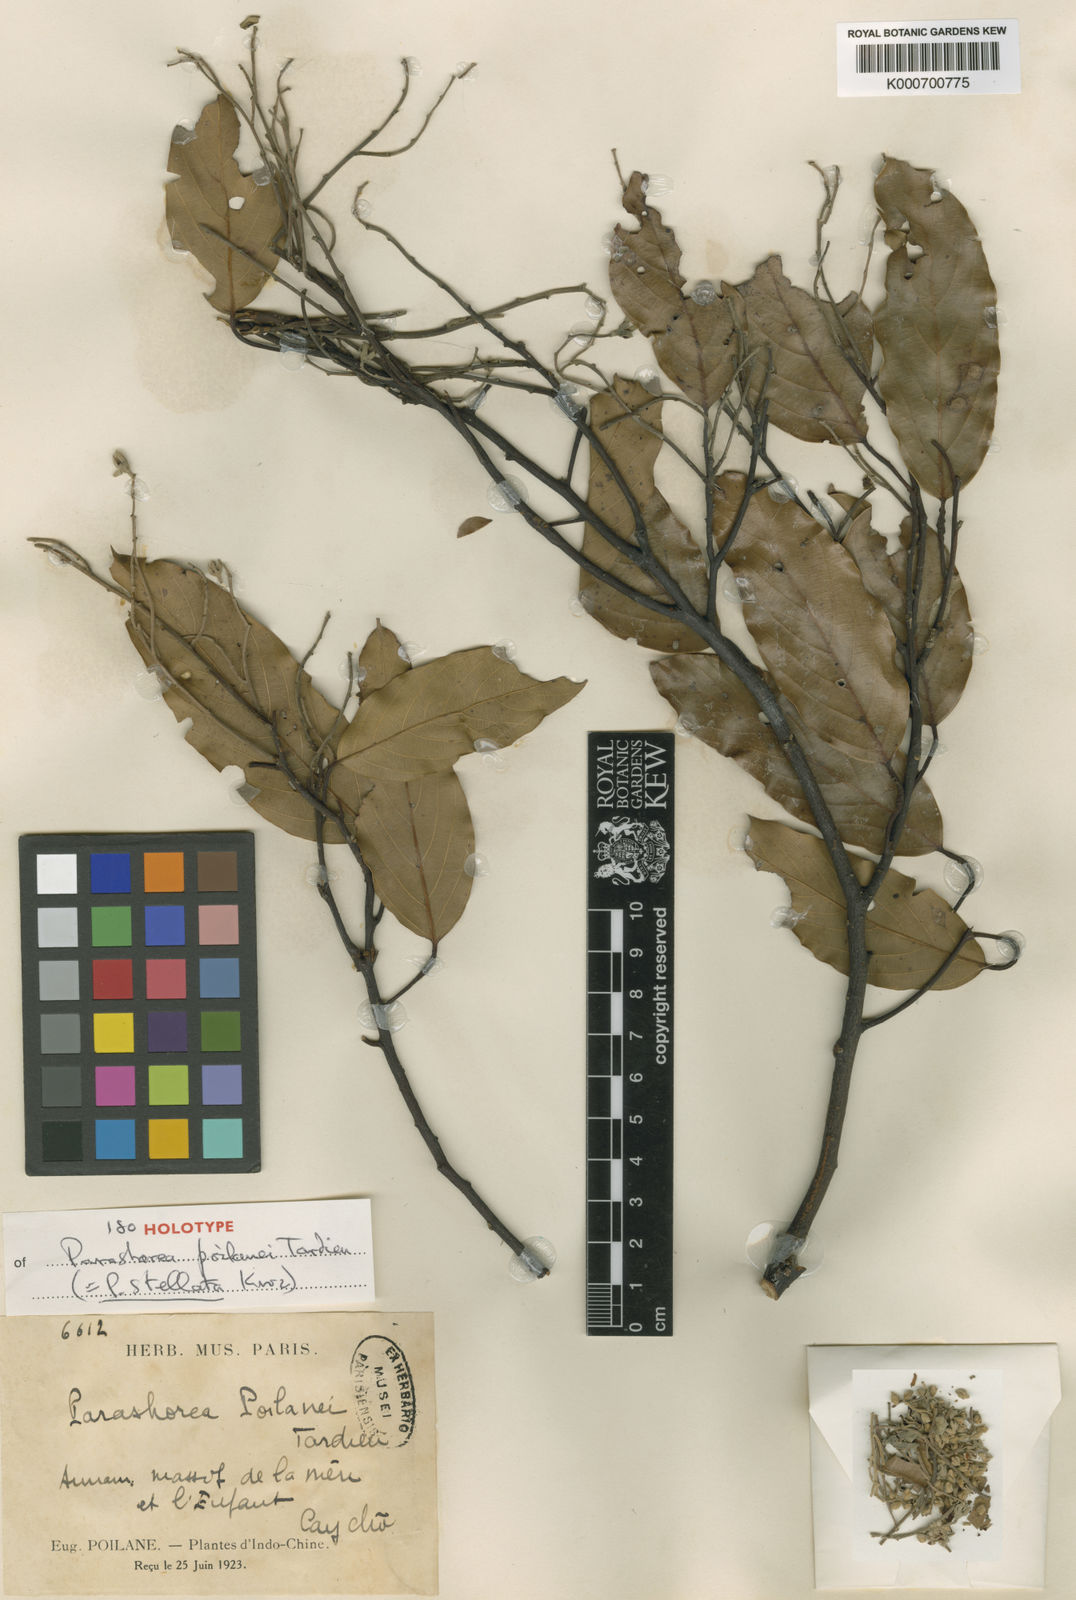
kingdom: Plantae
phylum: Tracheophyta
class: Magnoliopsida
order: Malvales
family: Dipterocarpaceae
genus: Parashorea
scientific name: Parashorea stellata
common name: Thinkadu
